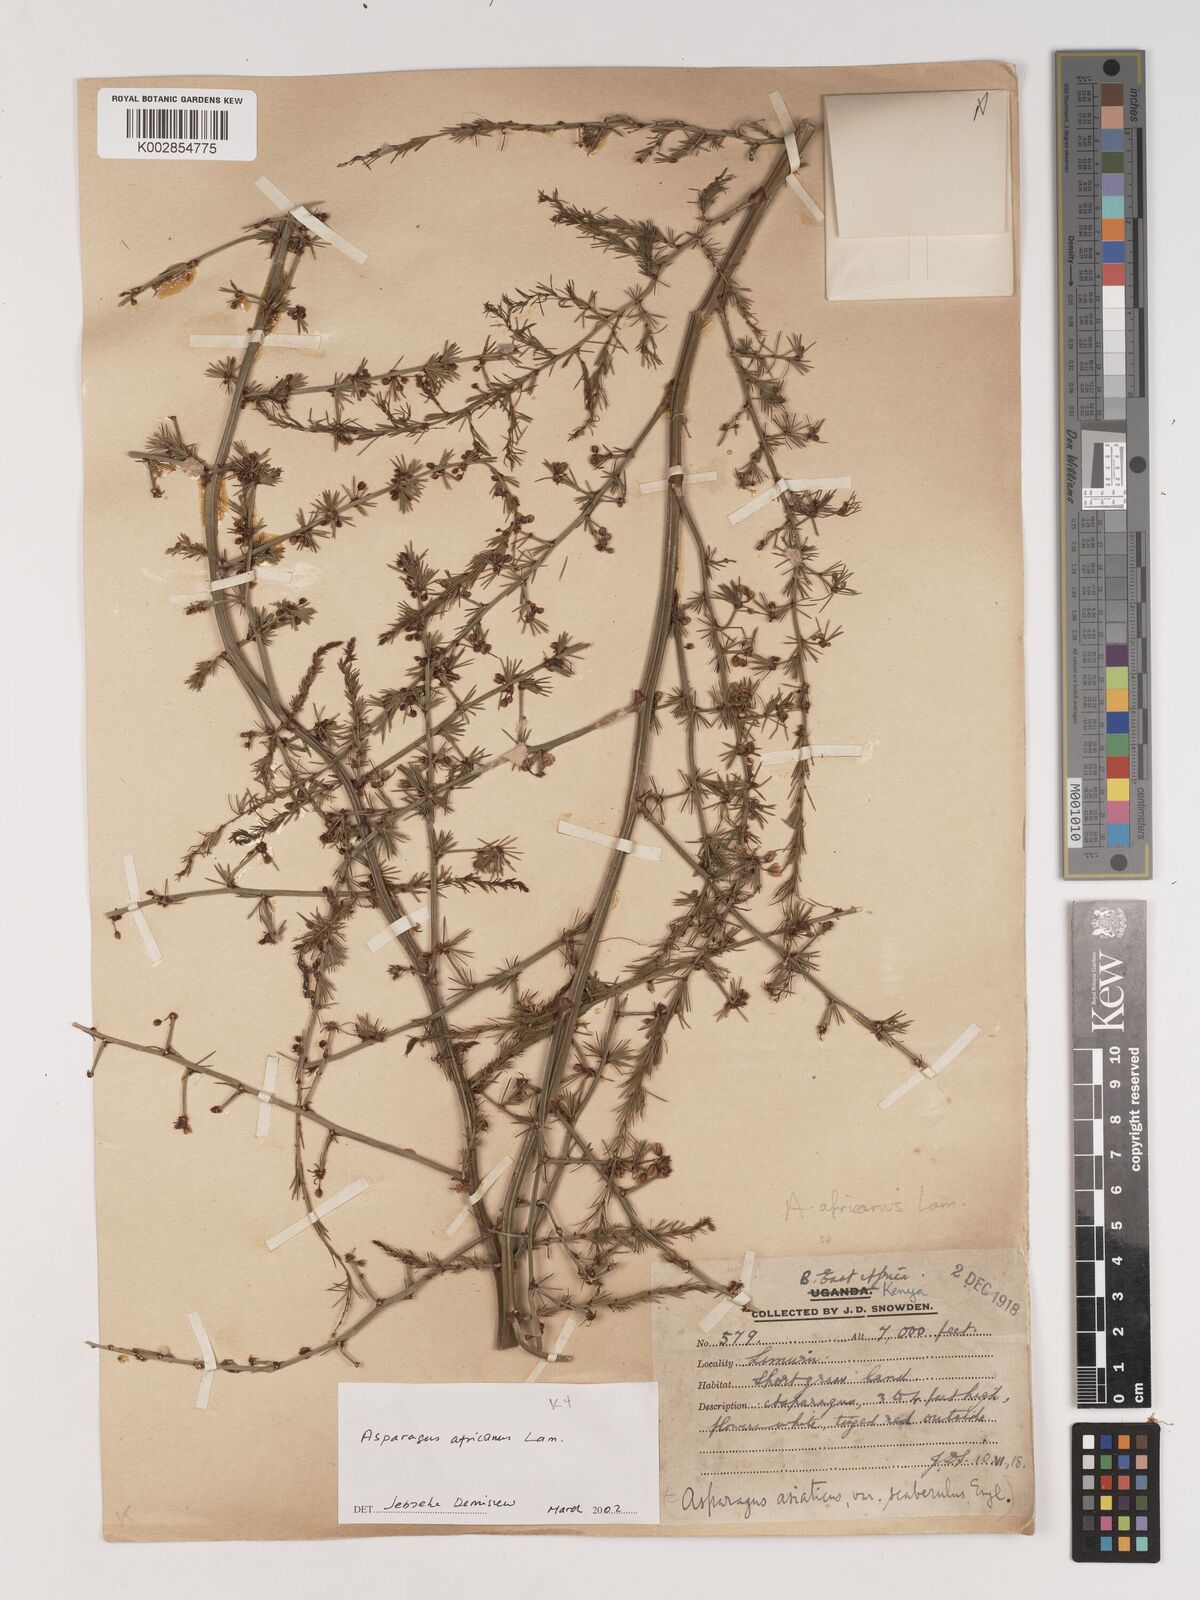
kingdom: Plantae
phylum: Tracheophyta
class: Liliopsida
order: Asparagales
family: Asparagaceae
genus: Asparagus
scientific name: Asparagus africanus
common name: Asparagus-fern
